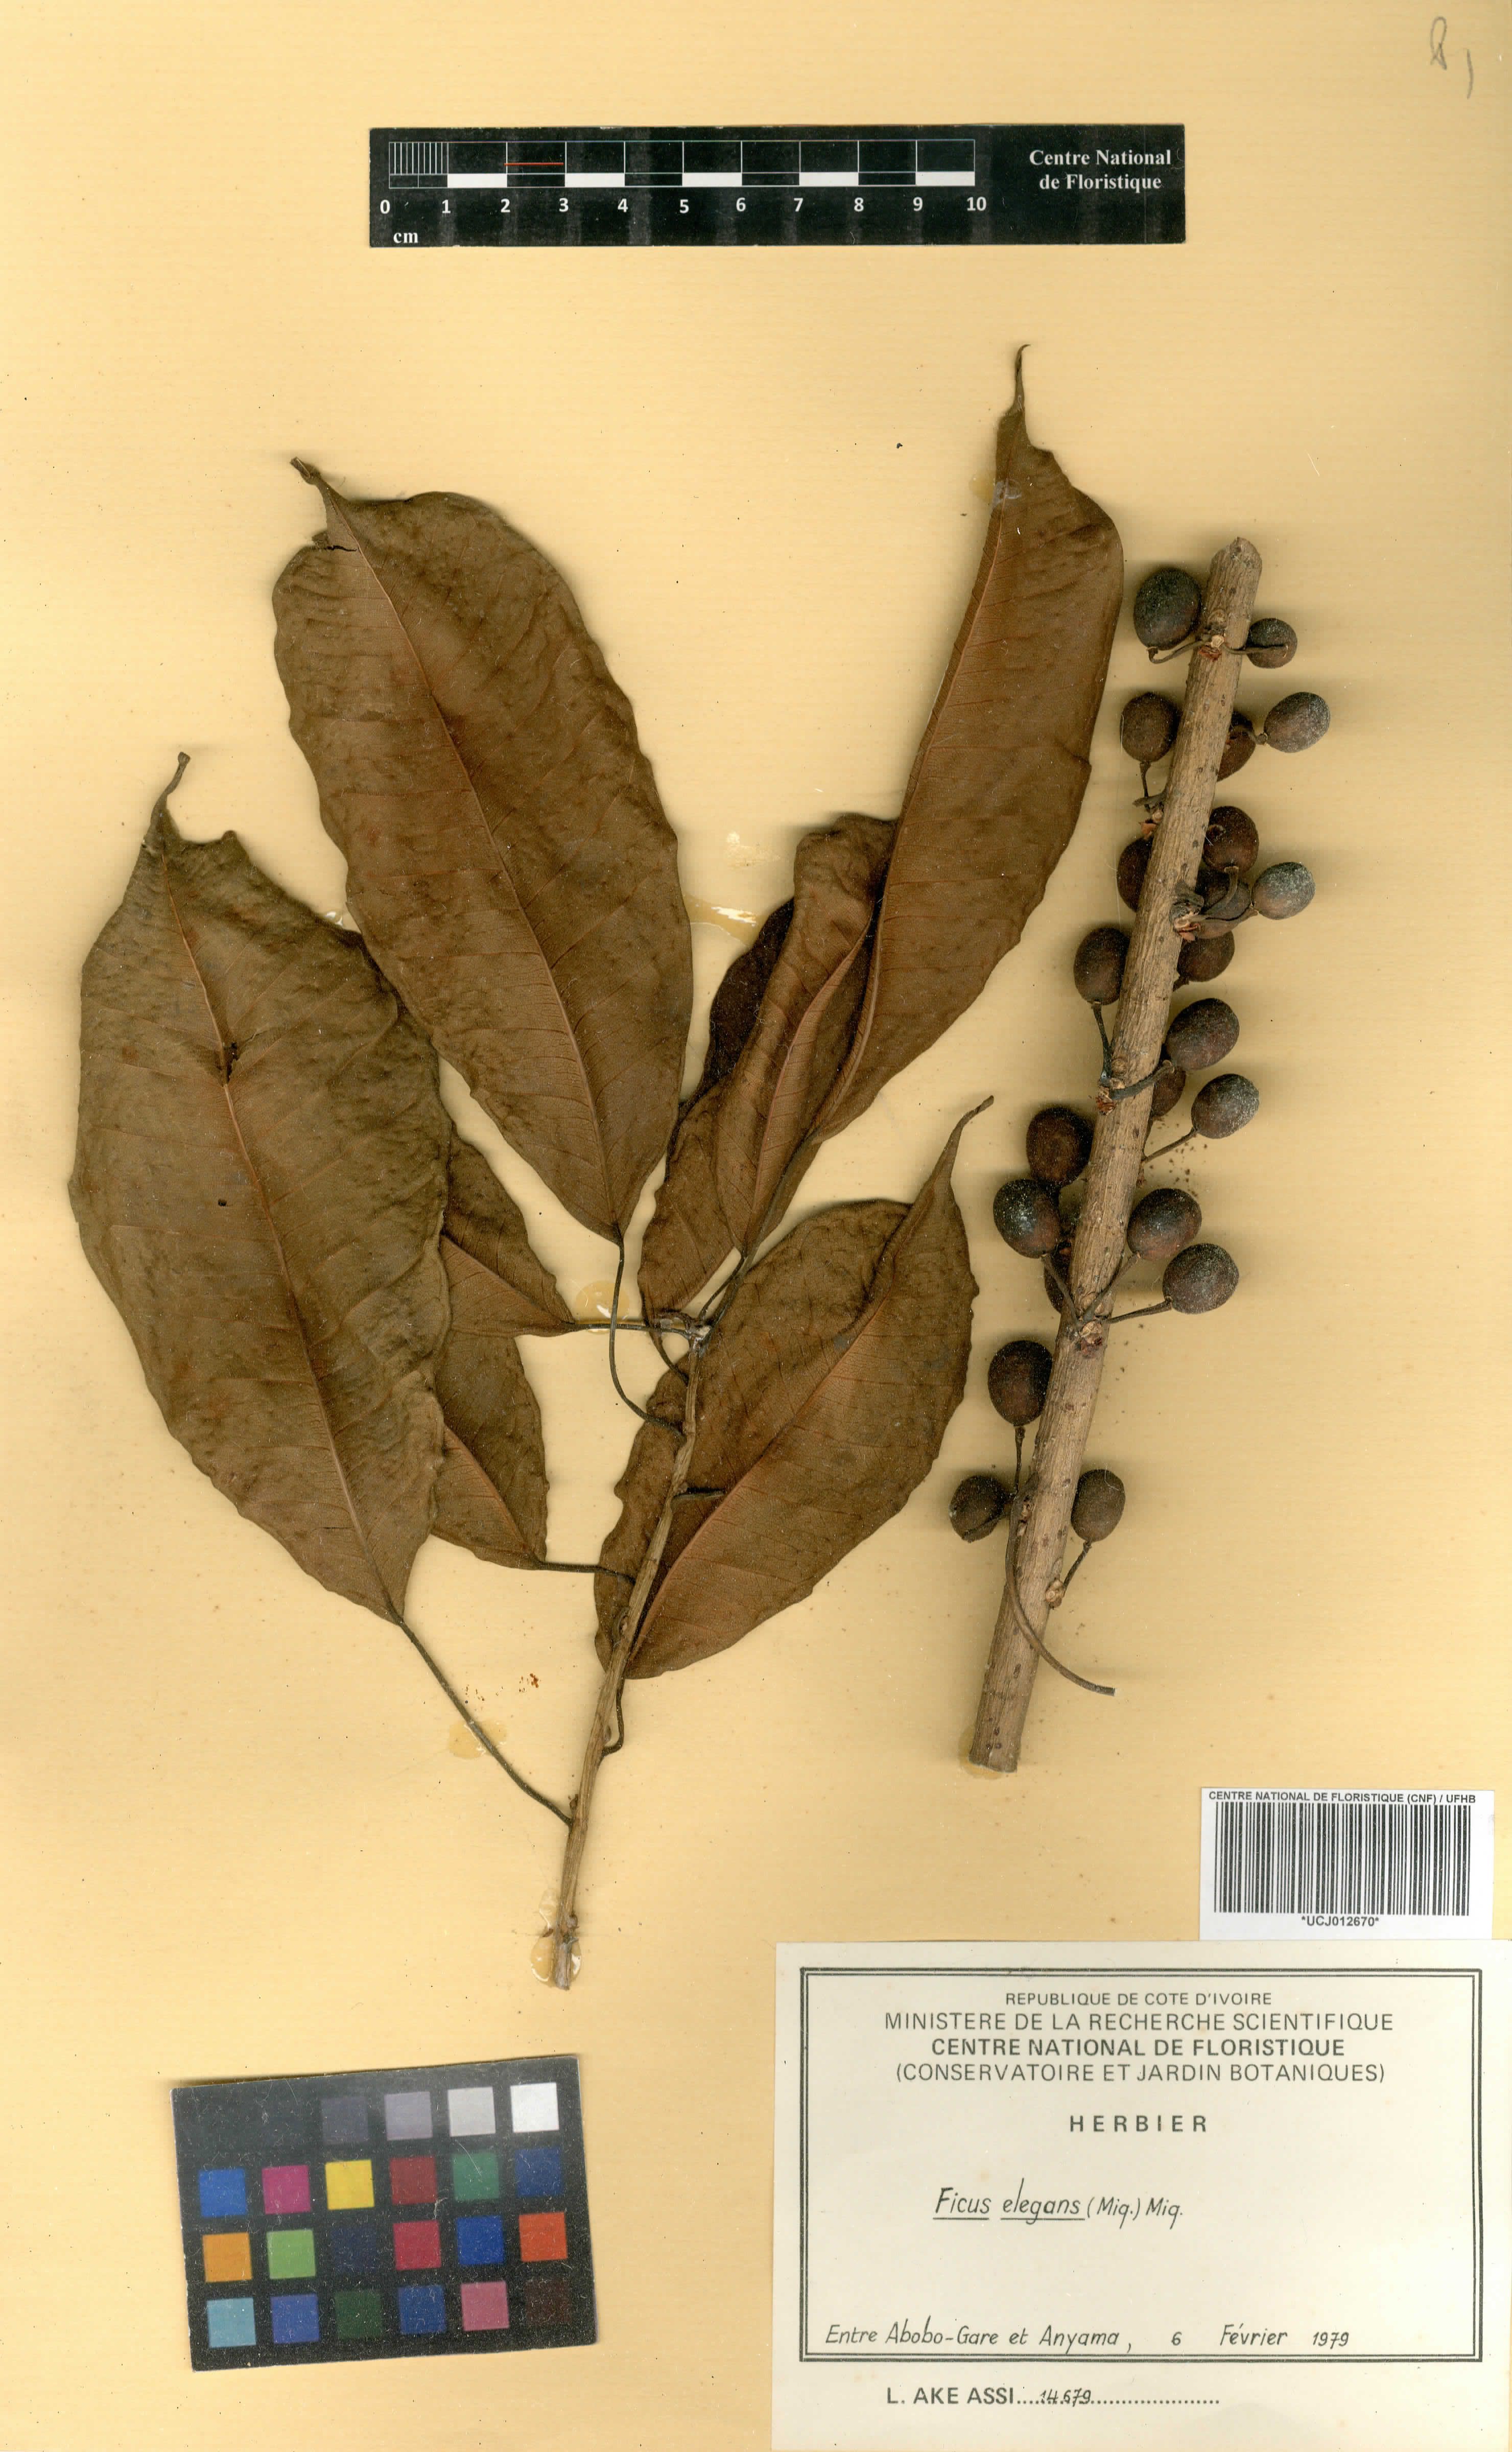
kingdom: Plantae
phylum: Tracheophyta
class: Magnoliopsida
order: Rosales
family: Moraceae
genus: Ficus
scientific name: Ficus
